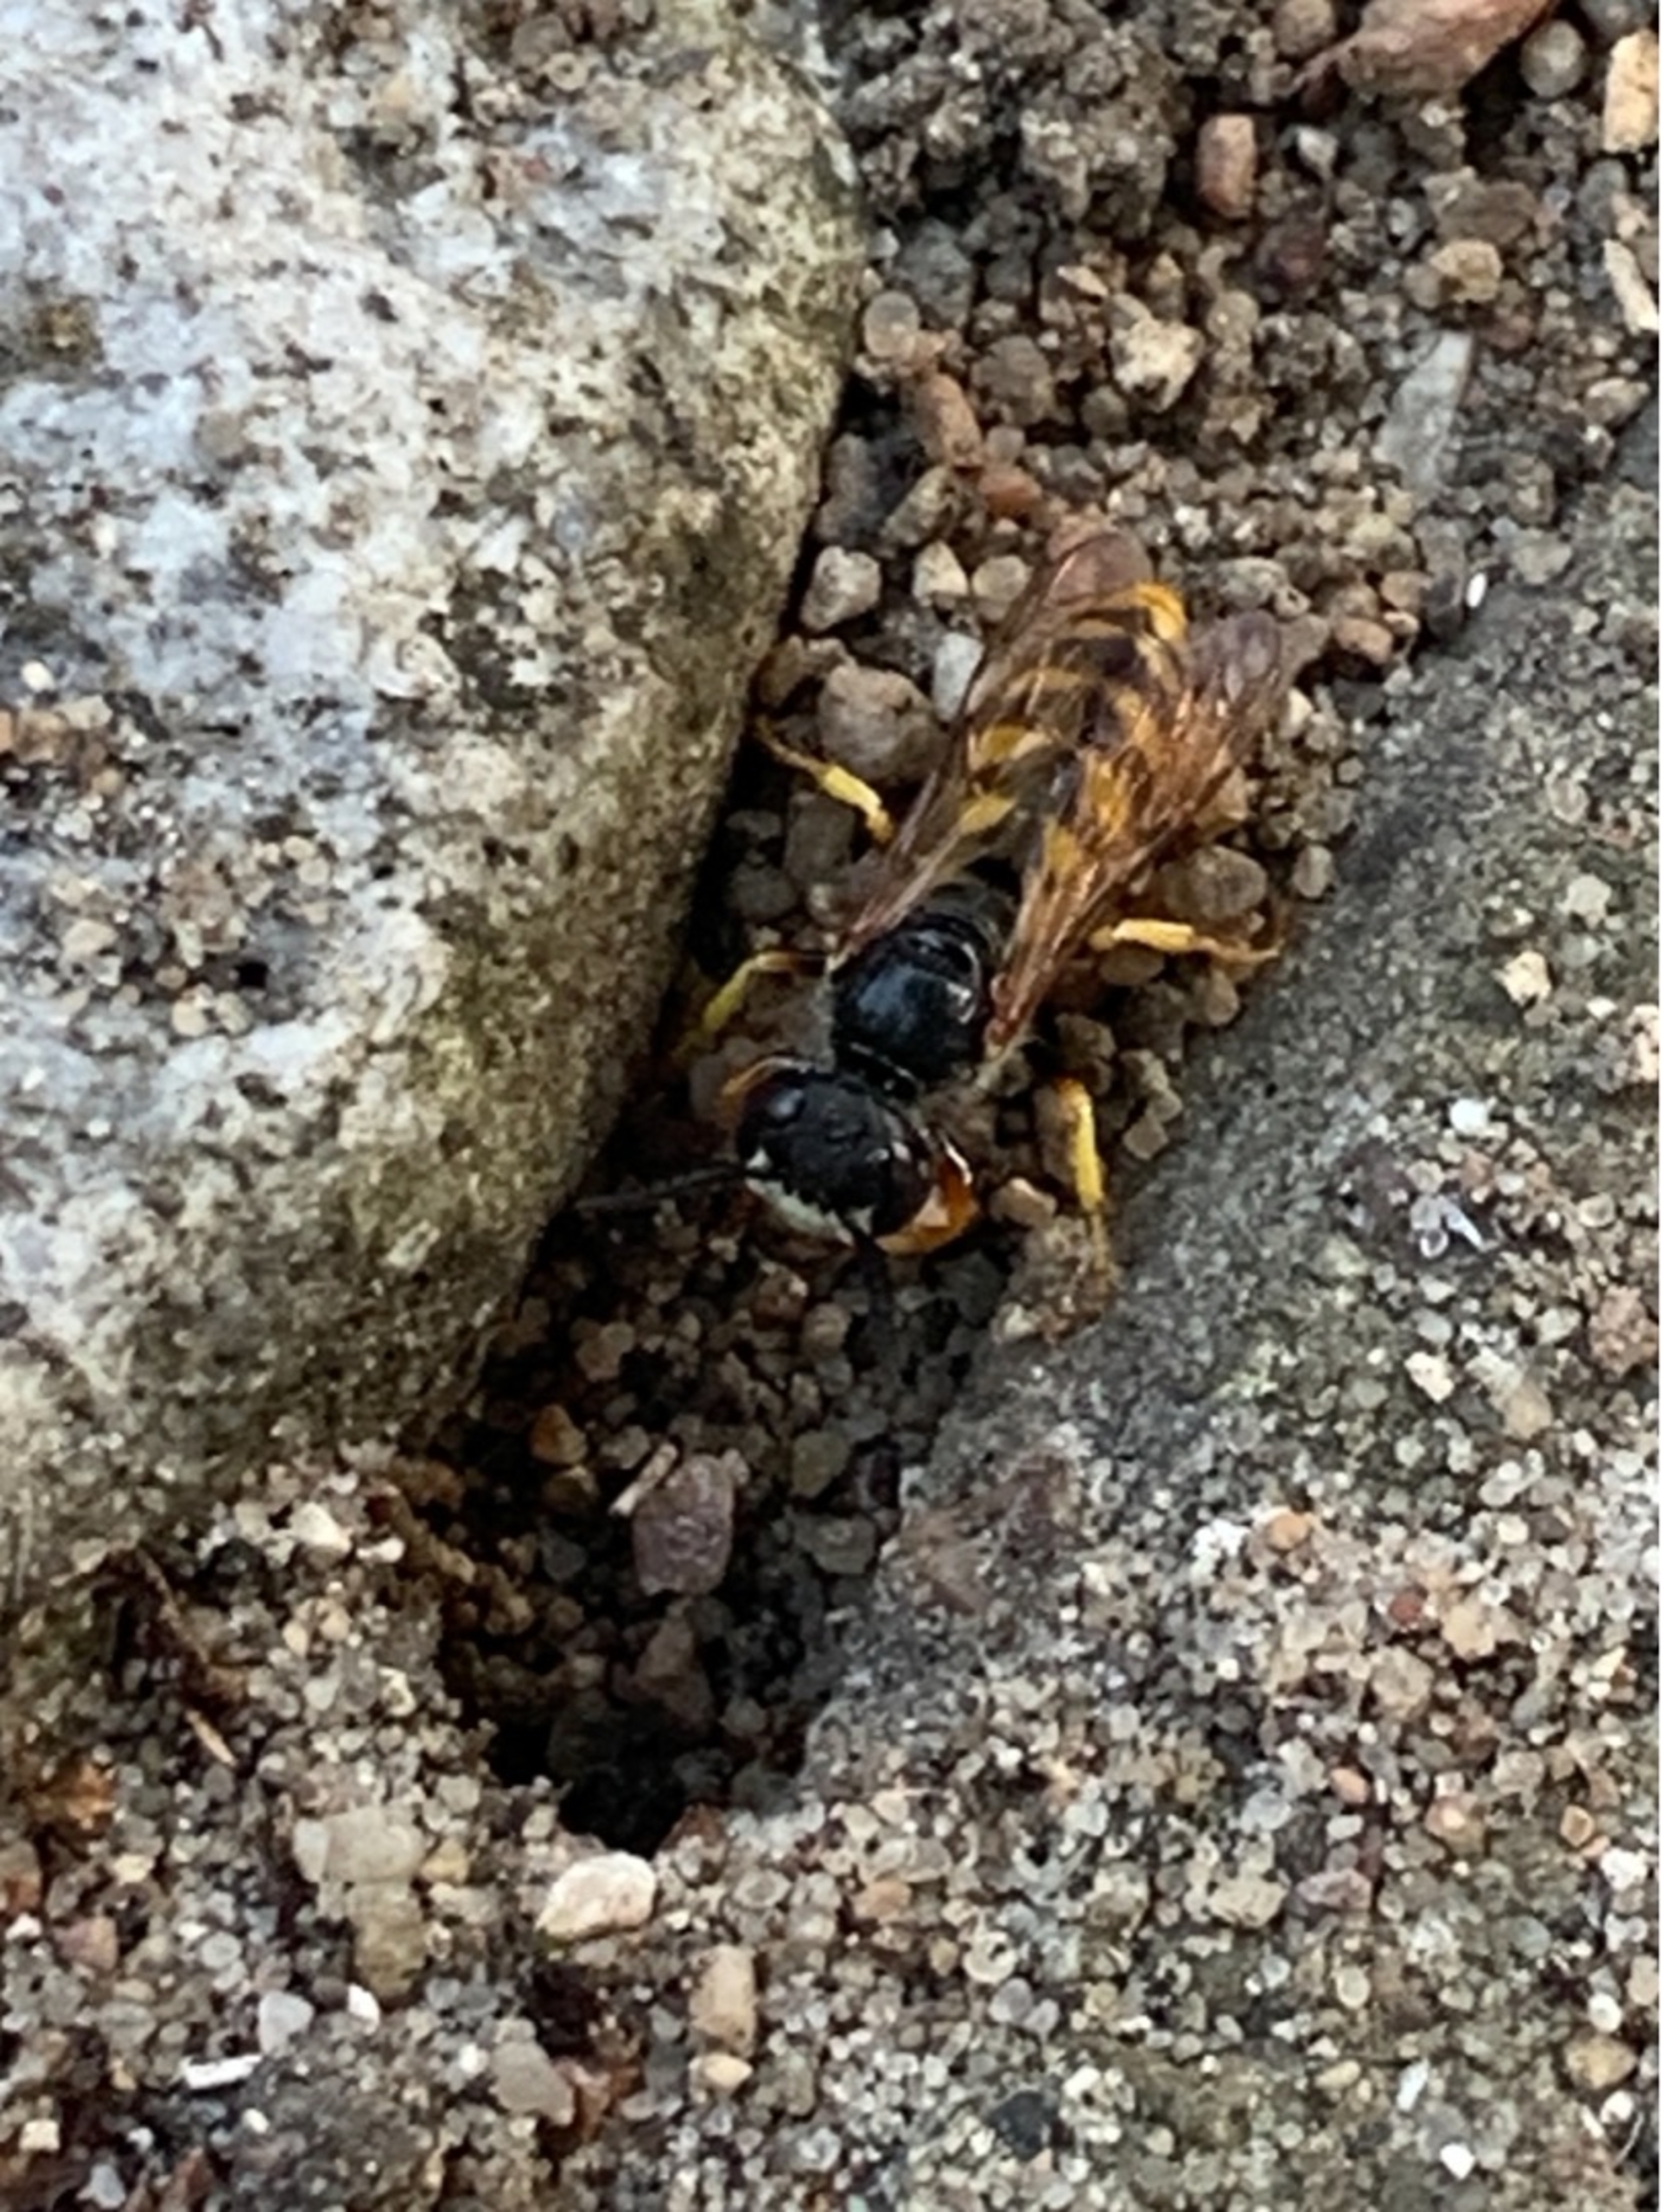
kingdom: Animalia
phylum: Arthropoda
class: Insecta
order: Hymenoptera
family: Crabronidae
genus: Philanthus
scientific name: Philanthus triangulum
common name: Biulv
